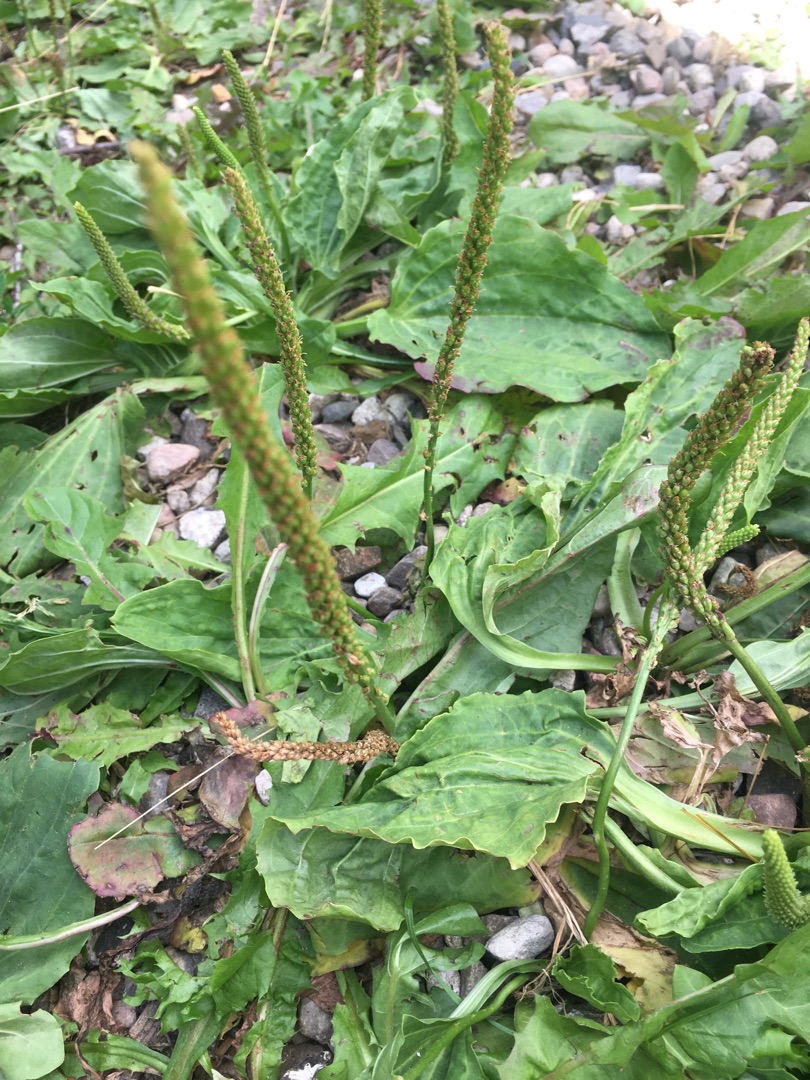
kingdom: Plantae
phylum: Tracheophyta
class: Magnoliopsida
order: Lamiales
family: Plantaginaceae
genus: Plantago
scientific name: Plantago major
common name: Glat vejbred
